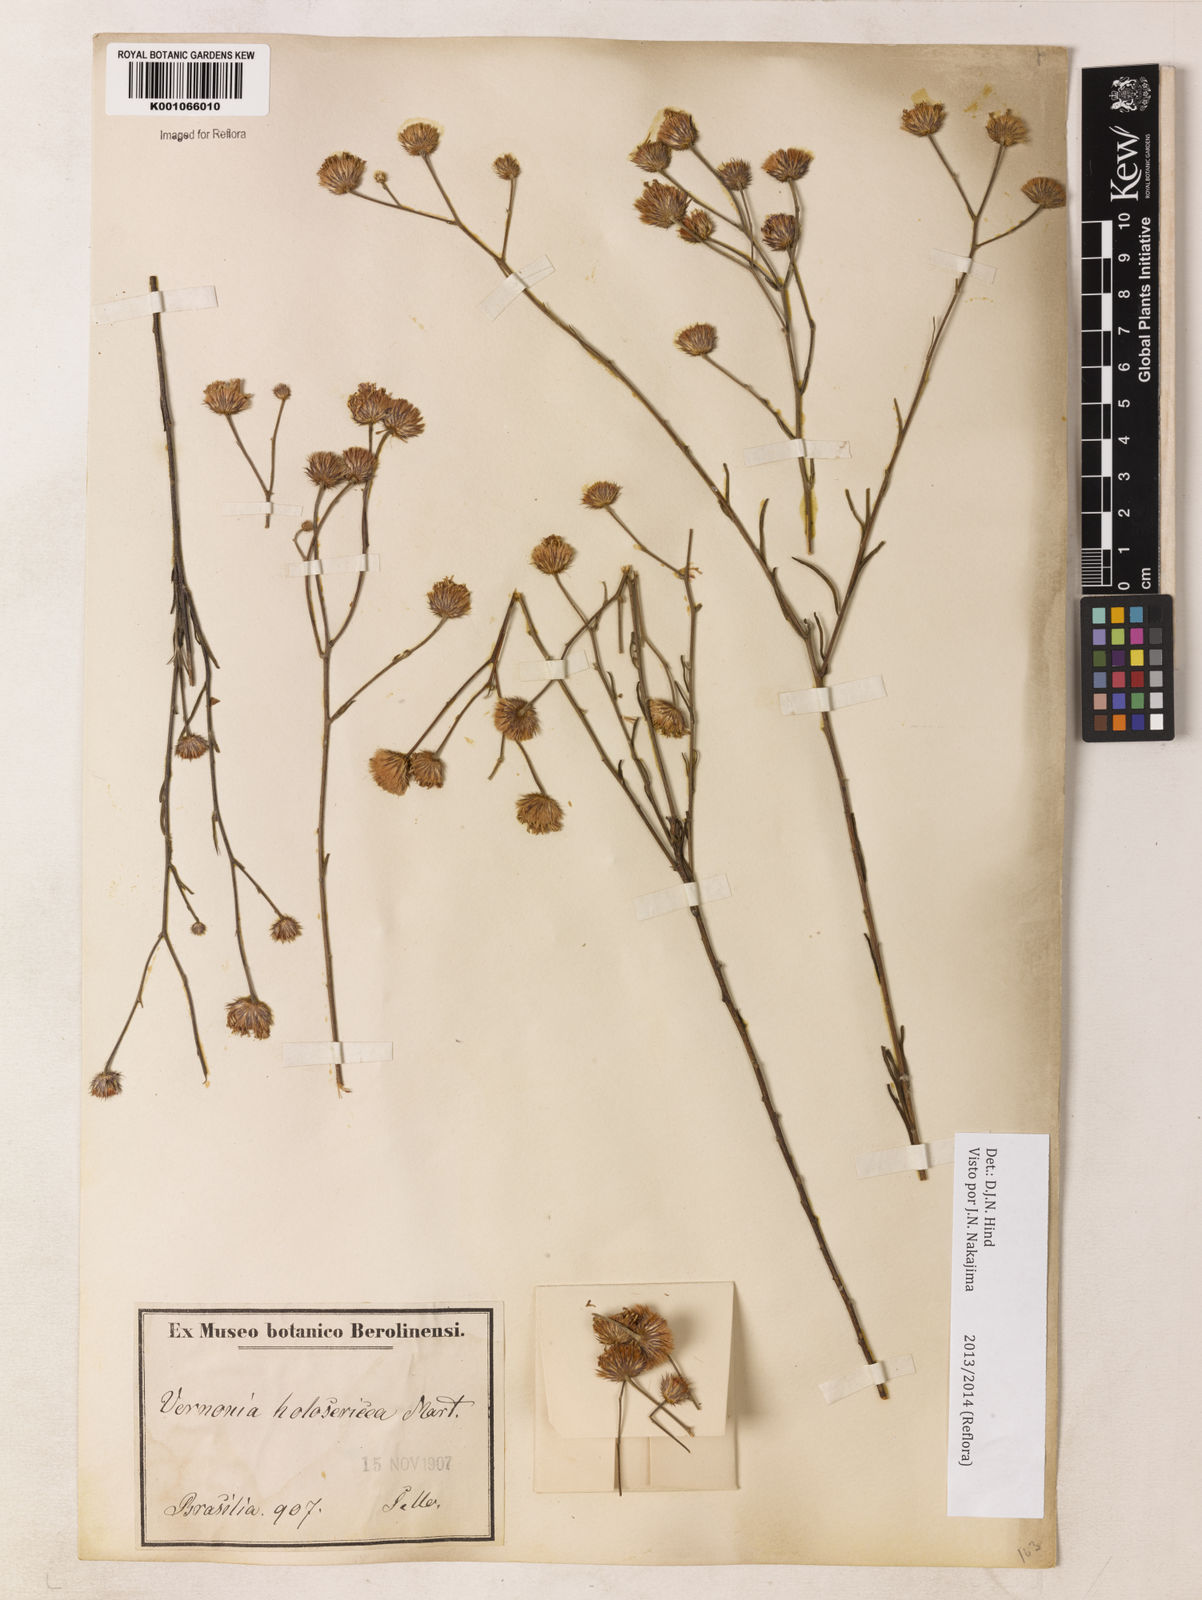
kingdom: Plantae
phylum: Tracheophyta
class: Magnoliopsida
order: Asterales
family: Asteraceae
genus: Echinocoryne
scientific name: Echinocoryne holosericea
